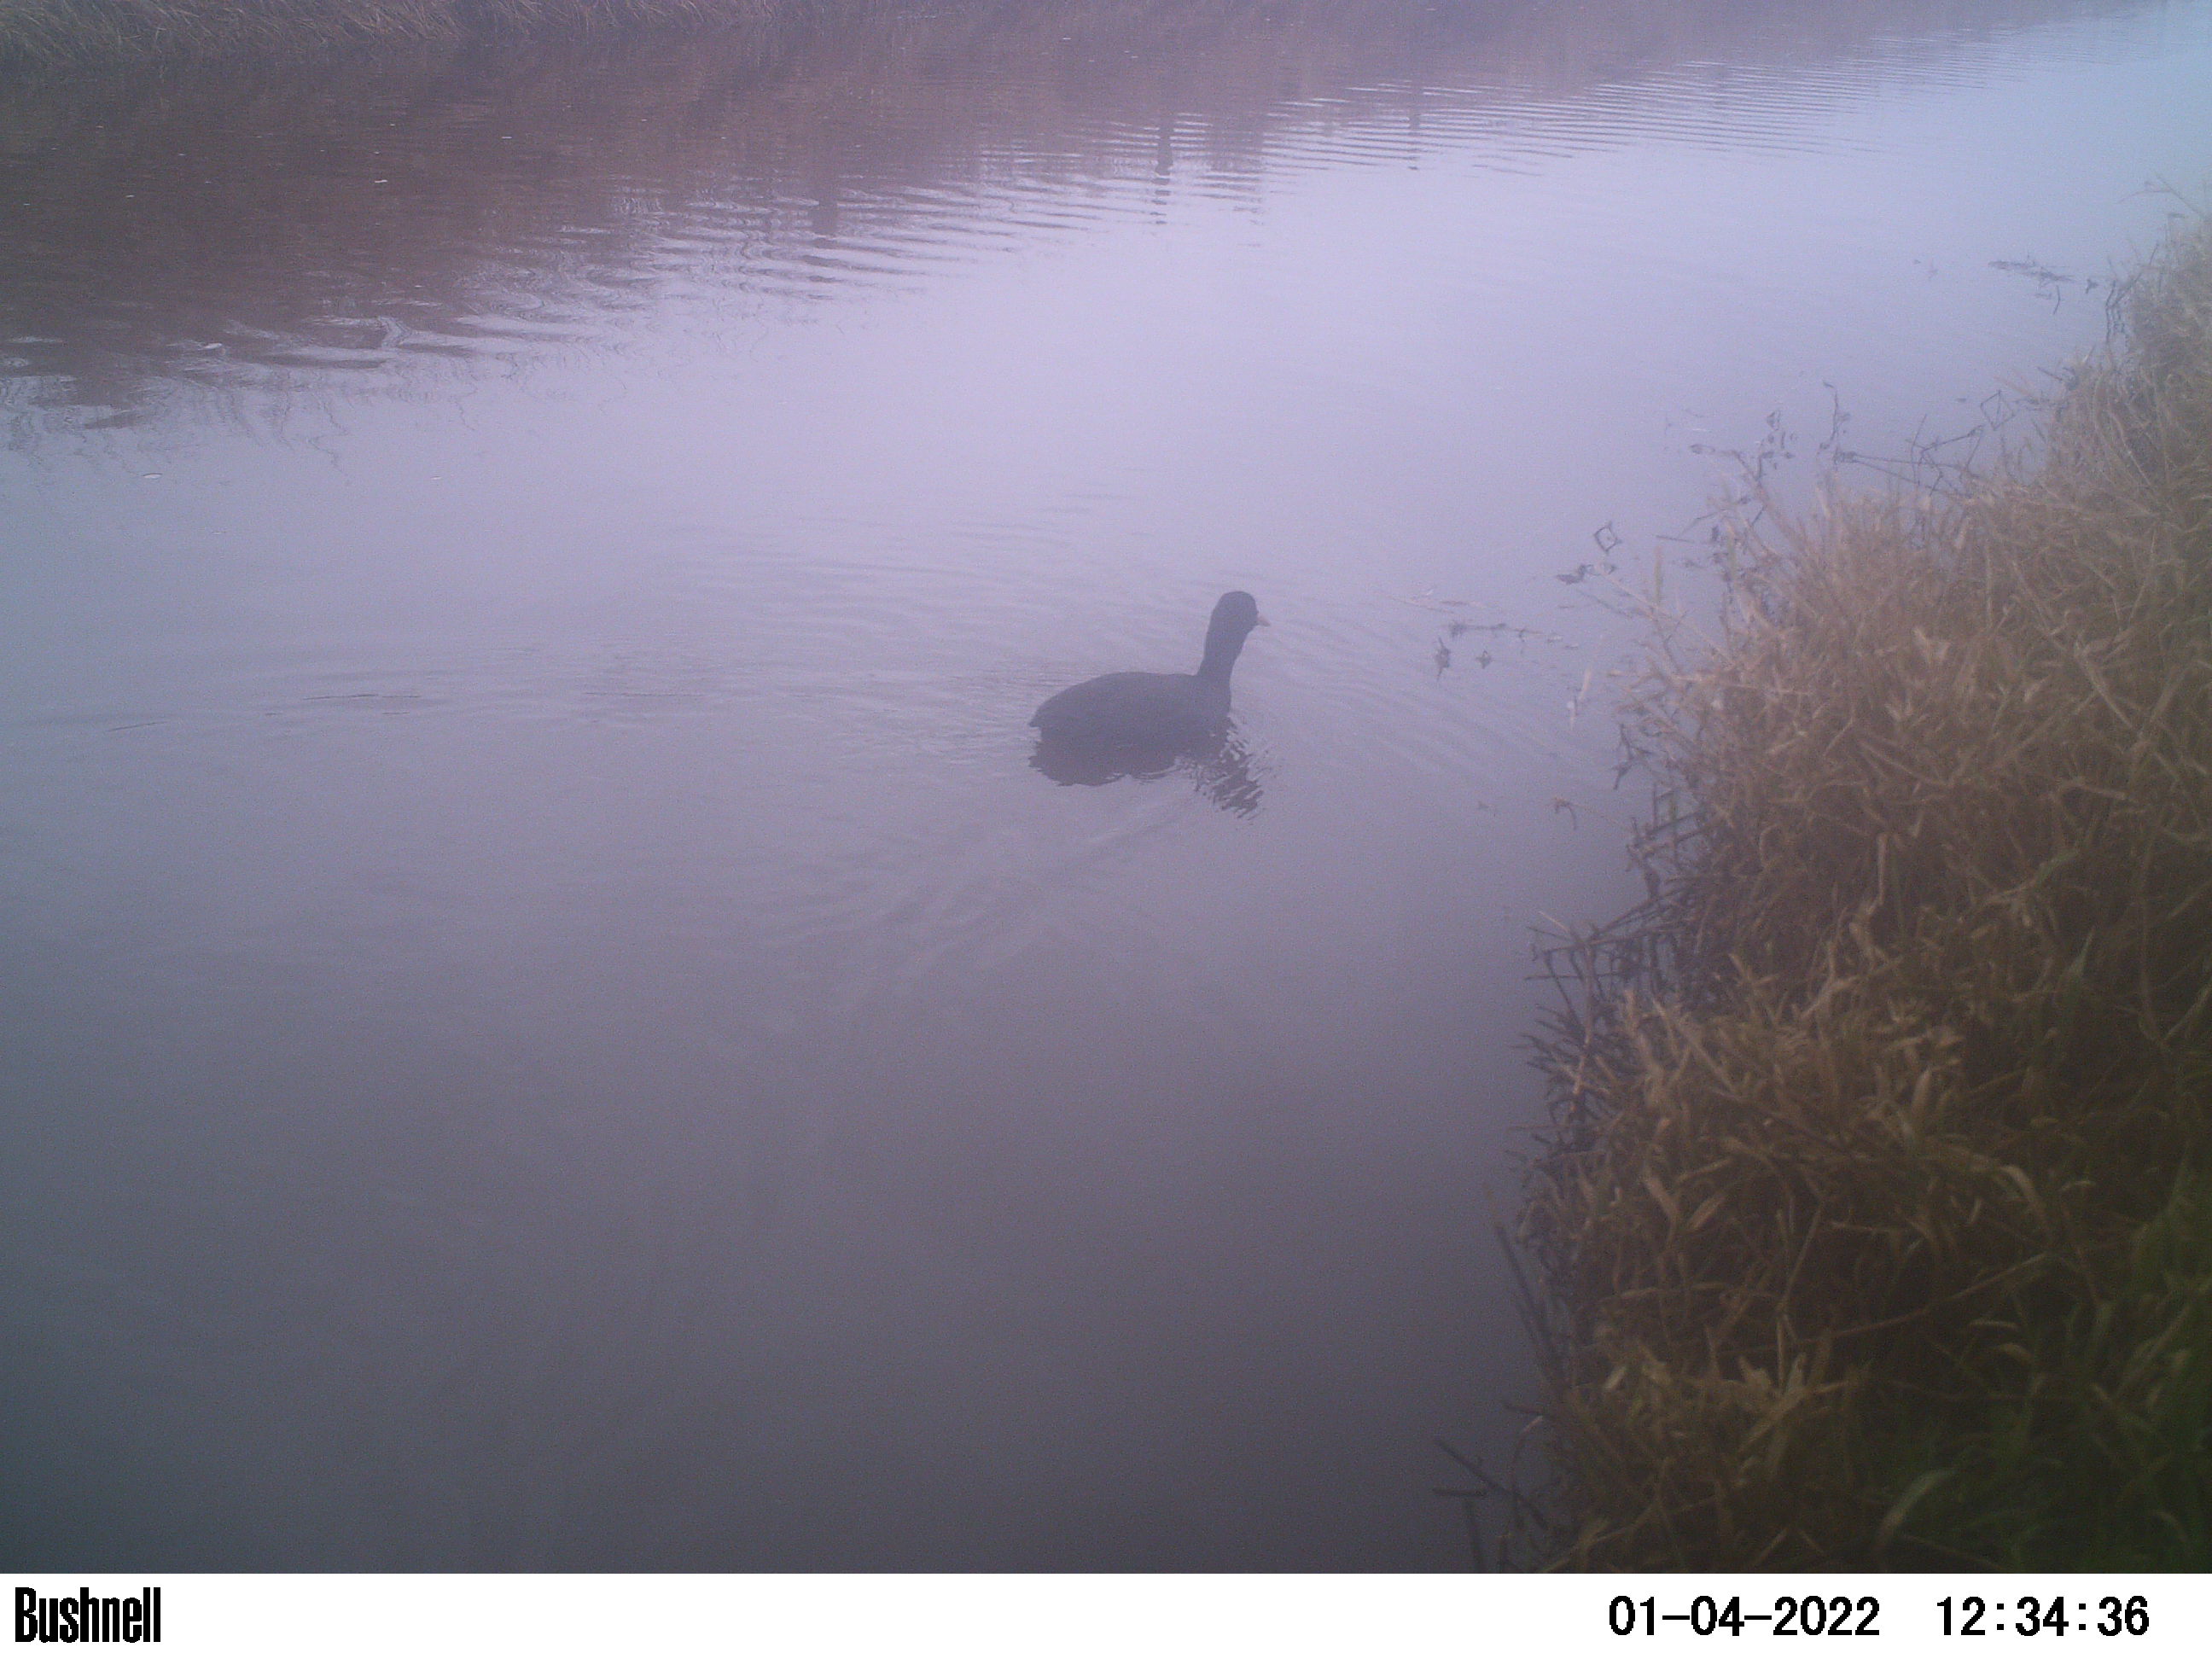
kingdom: Animalia
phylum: Chordata
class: Aves
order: Gruiformes
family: Rallidae
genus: Fulica
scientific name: Fulica atra
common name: Eurasian coot
